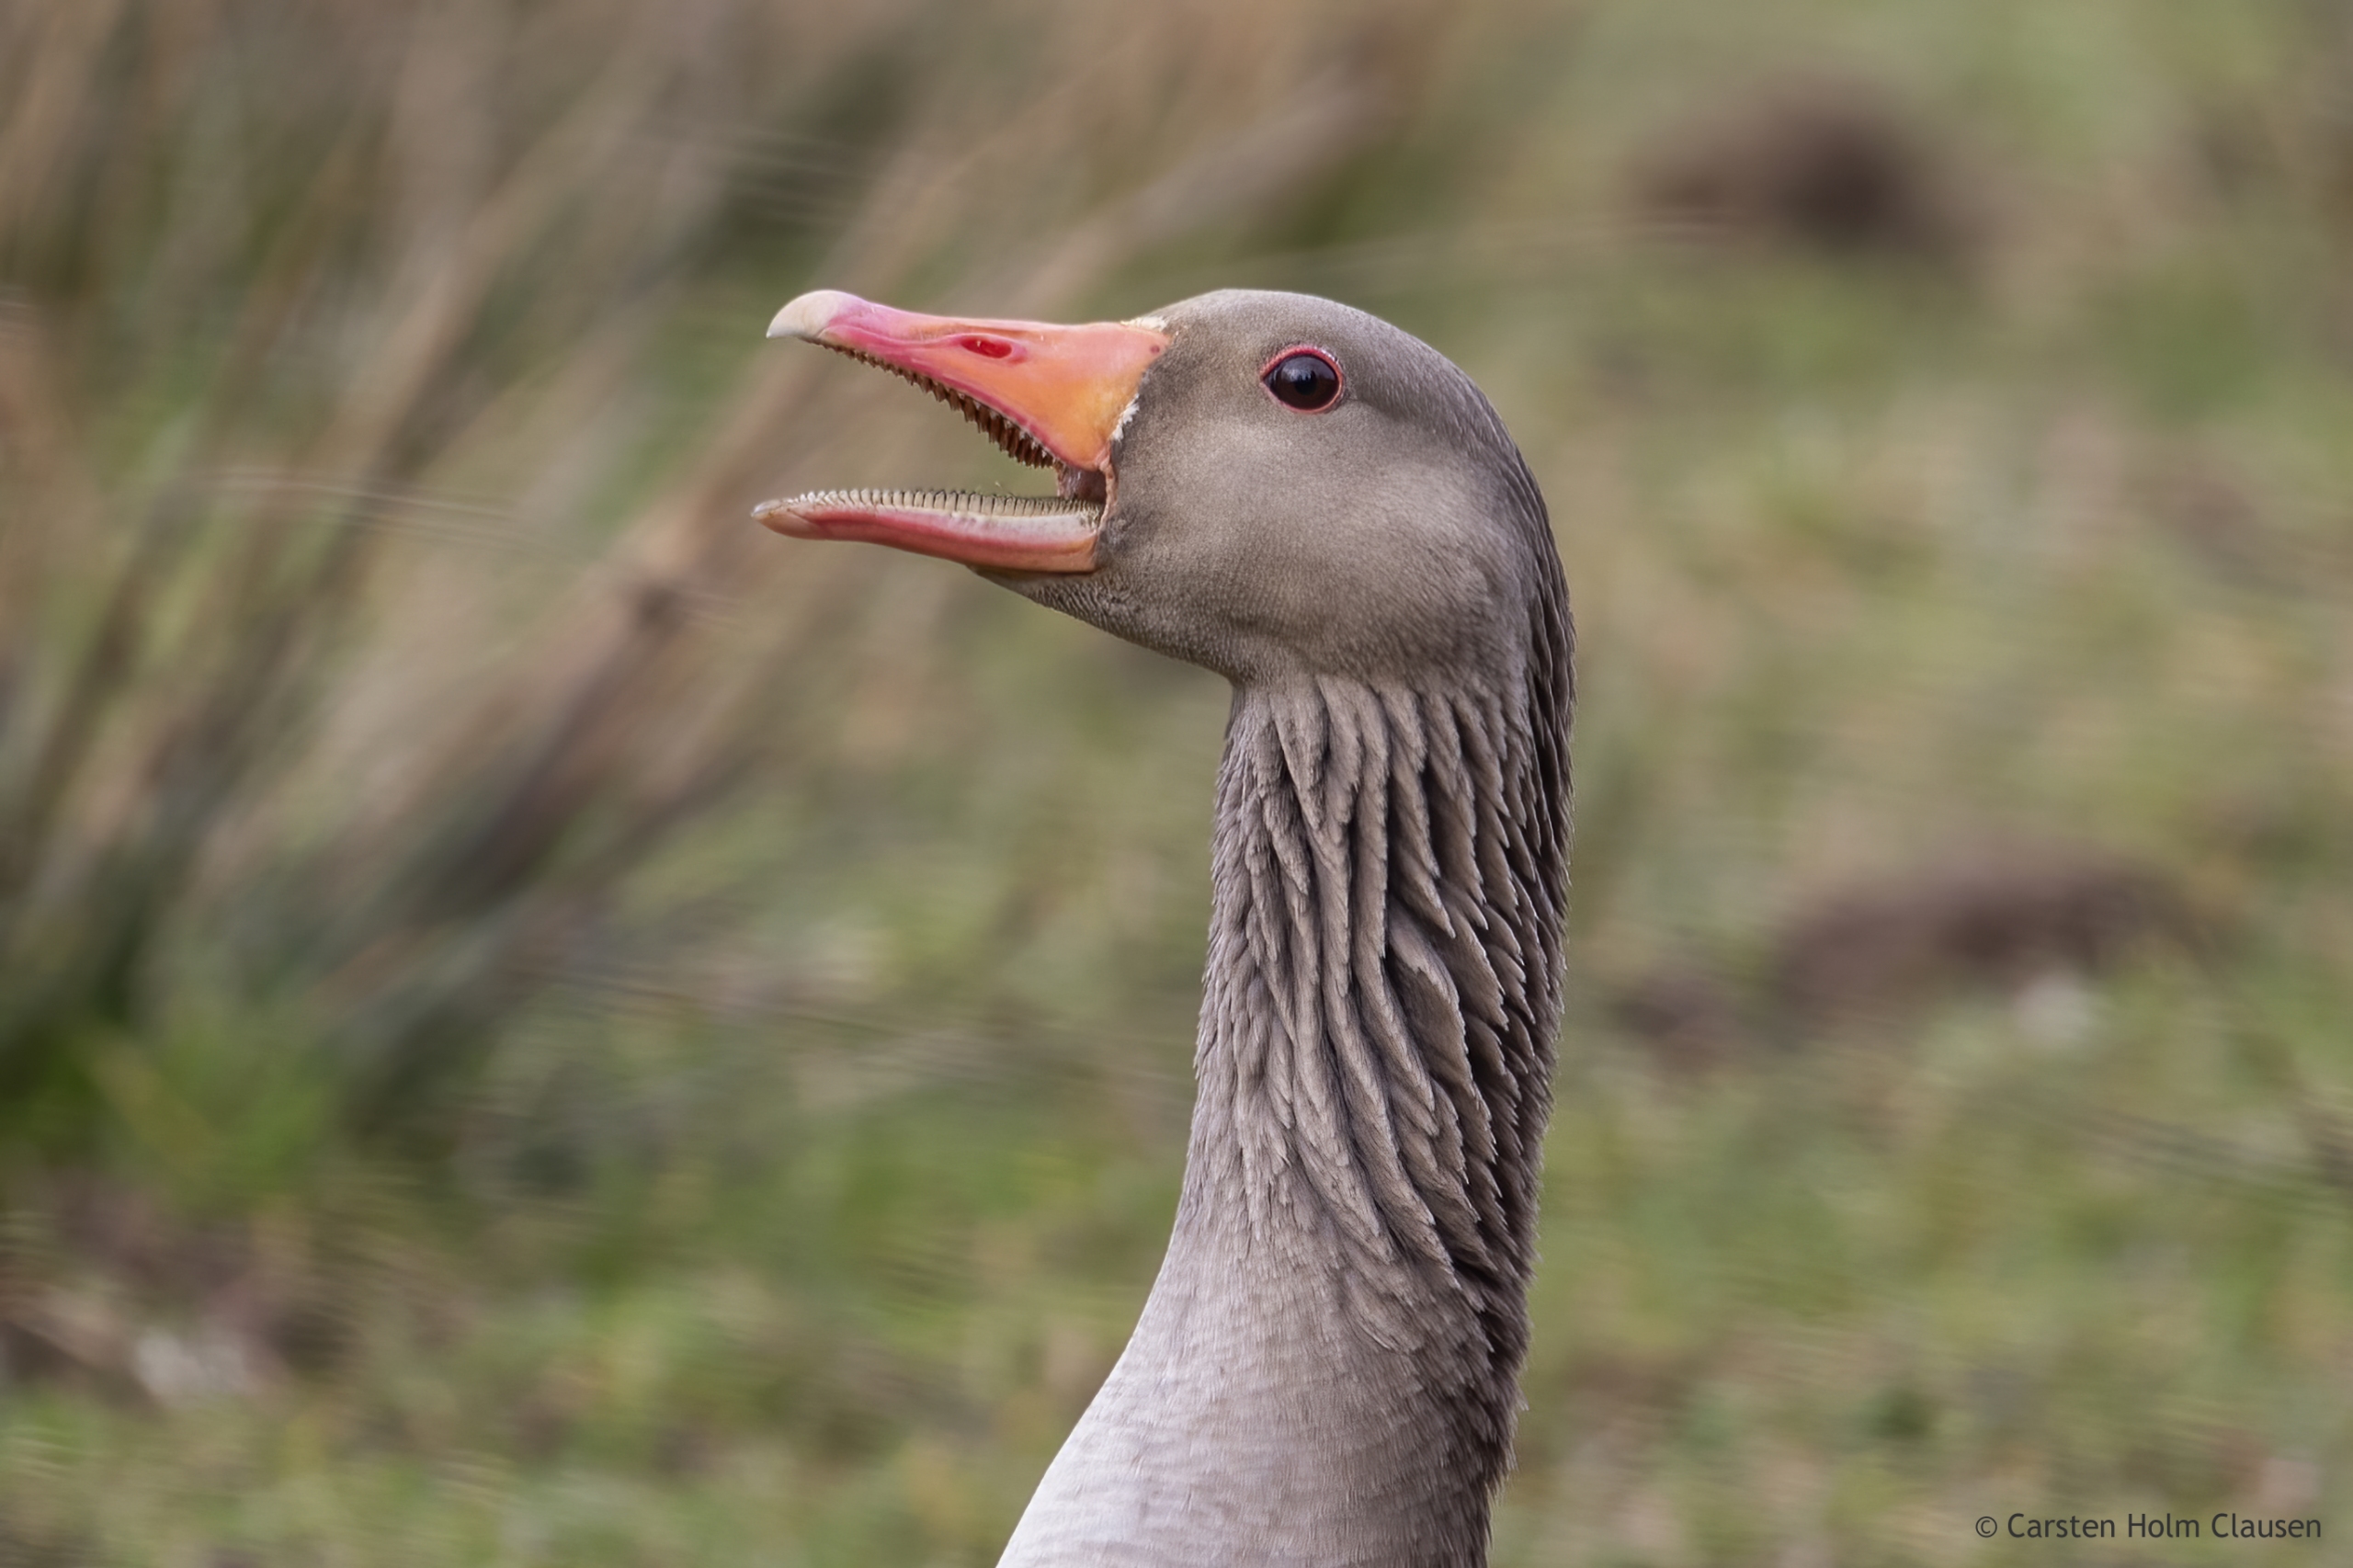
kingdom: Animalia
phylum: Chordata
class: Aves
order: Anseriformes
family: Anatidae
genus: Anser
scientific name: Anser anser
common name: Grågås
